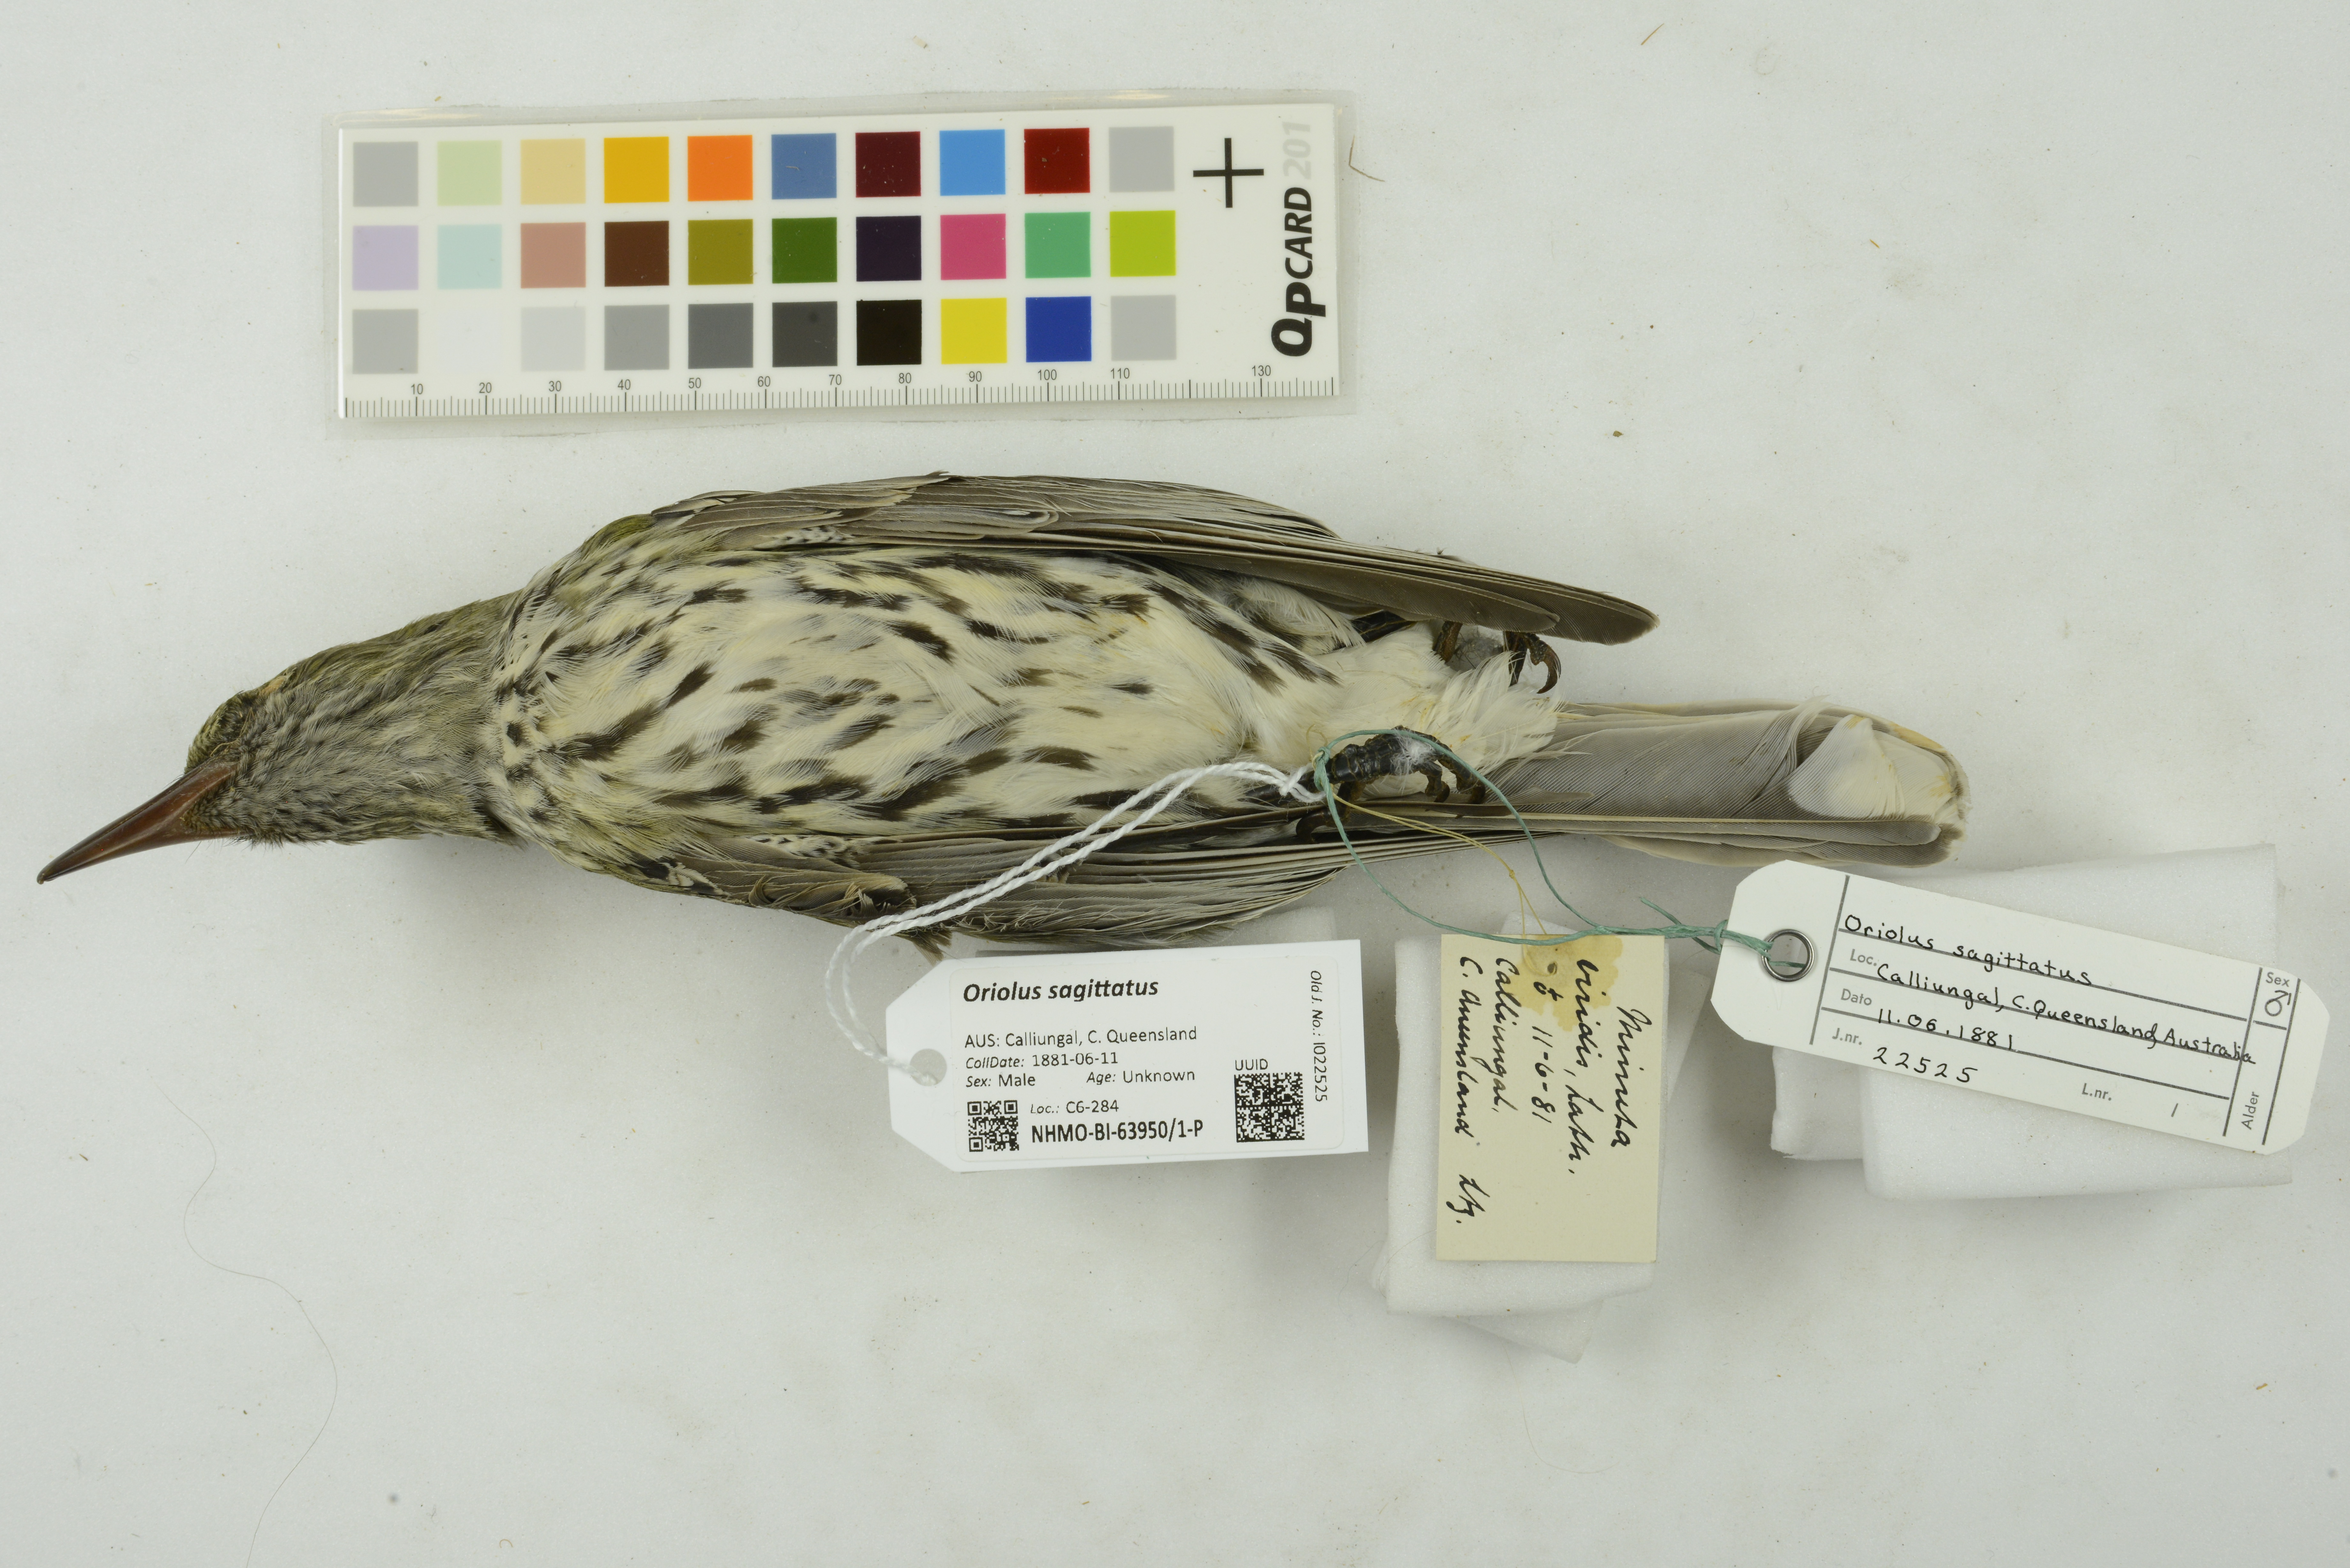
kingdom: Animalia
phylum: Chordata
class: Aves
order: Passeriformes
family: Oriolidae
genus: Oriolus
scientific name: Oriolus sagittatus
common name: Olive-backed oriole
